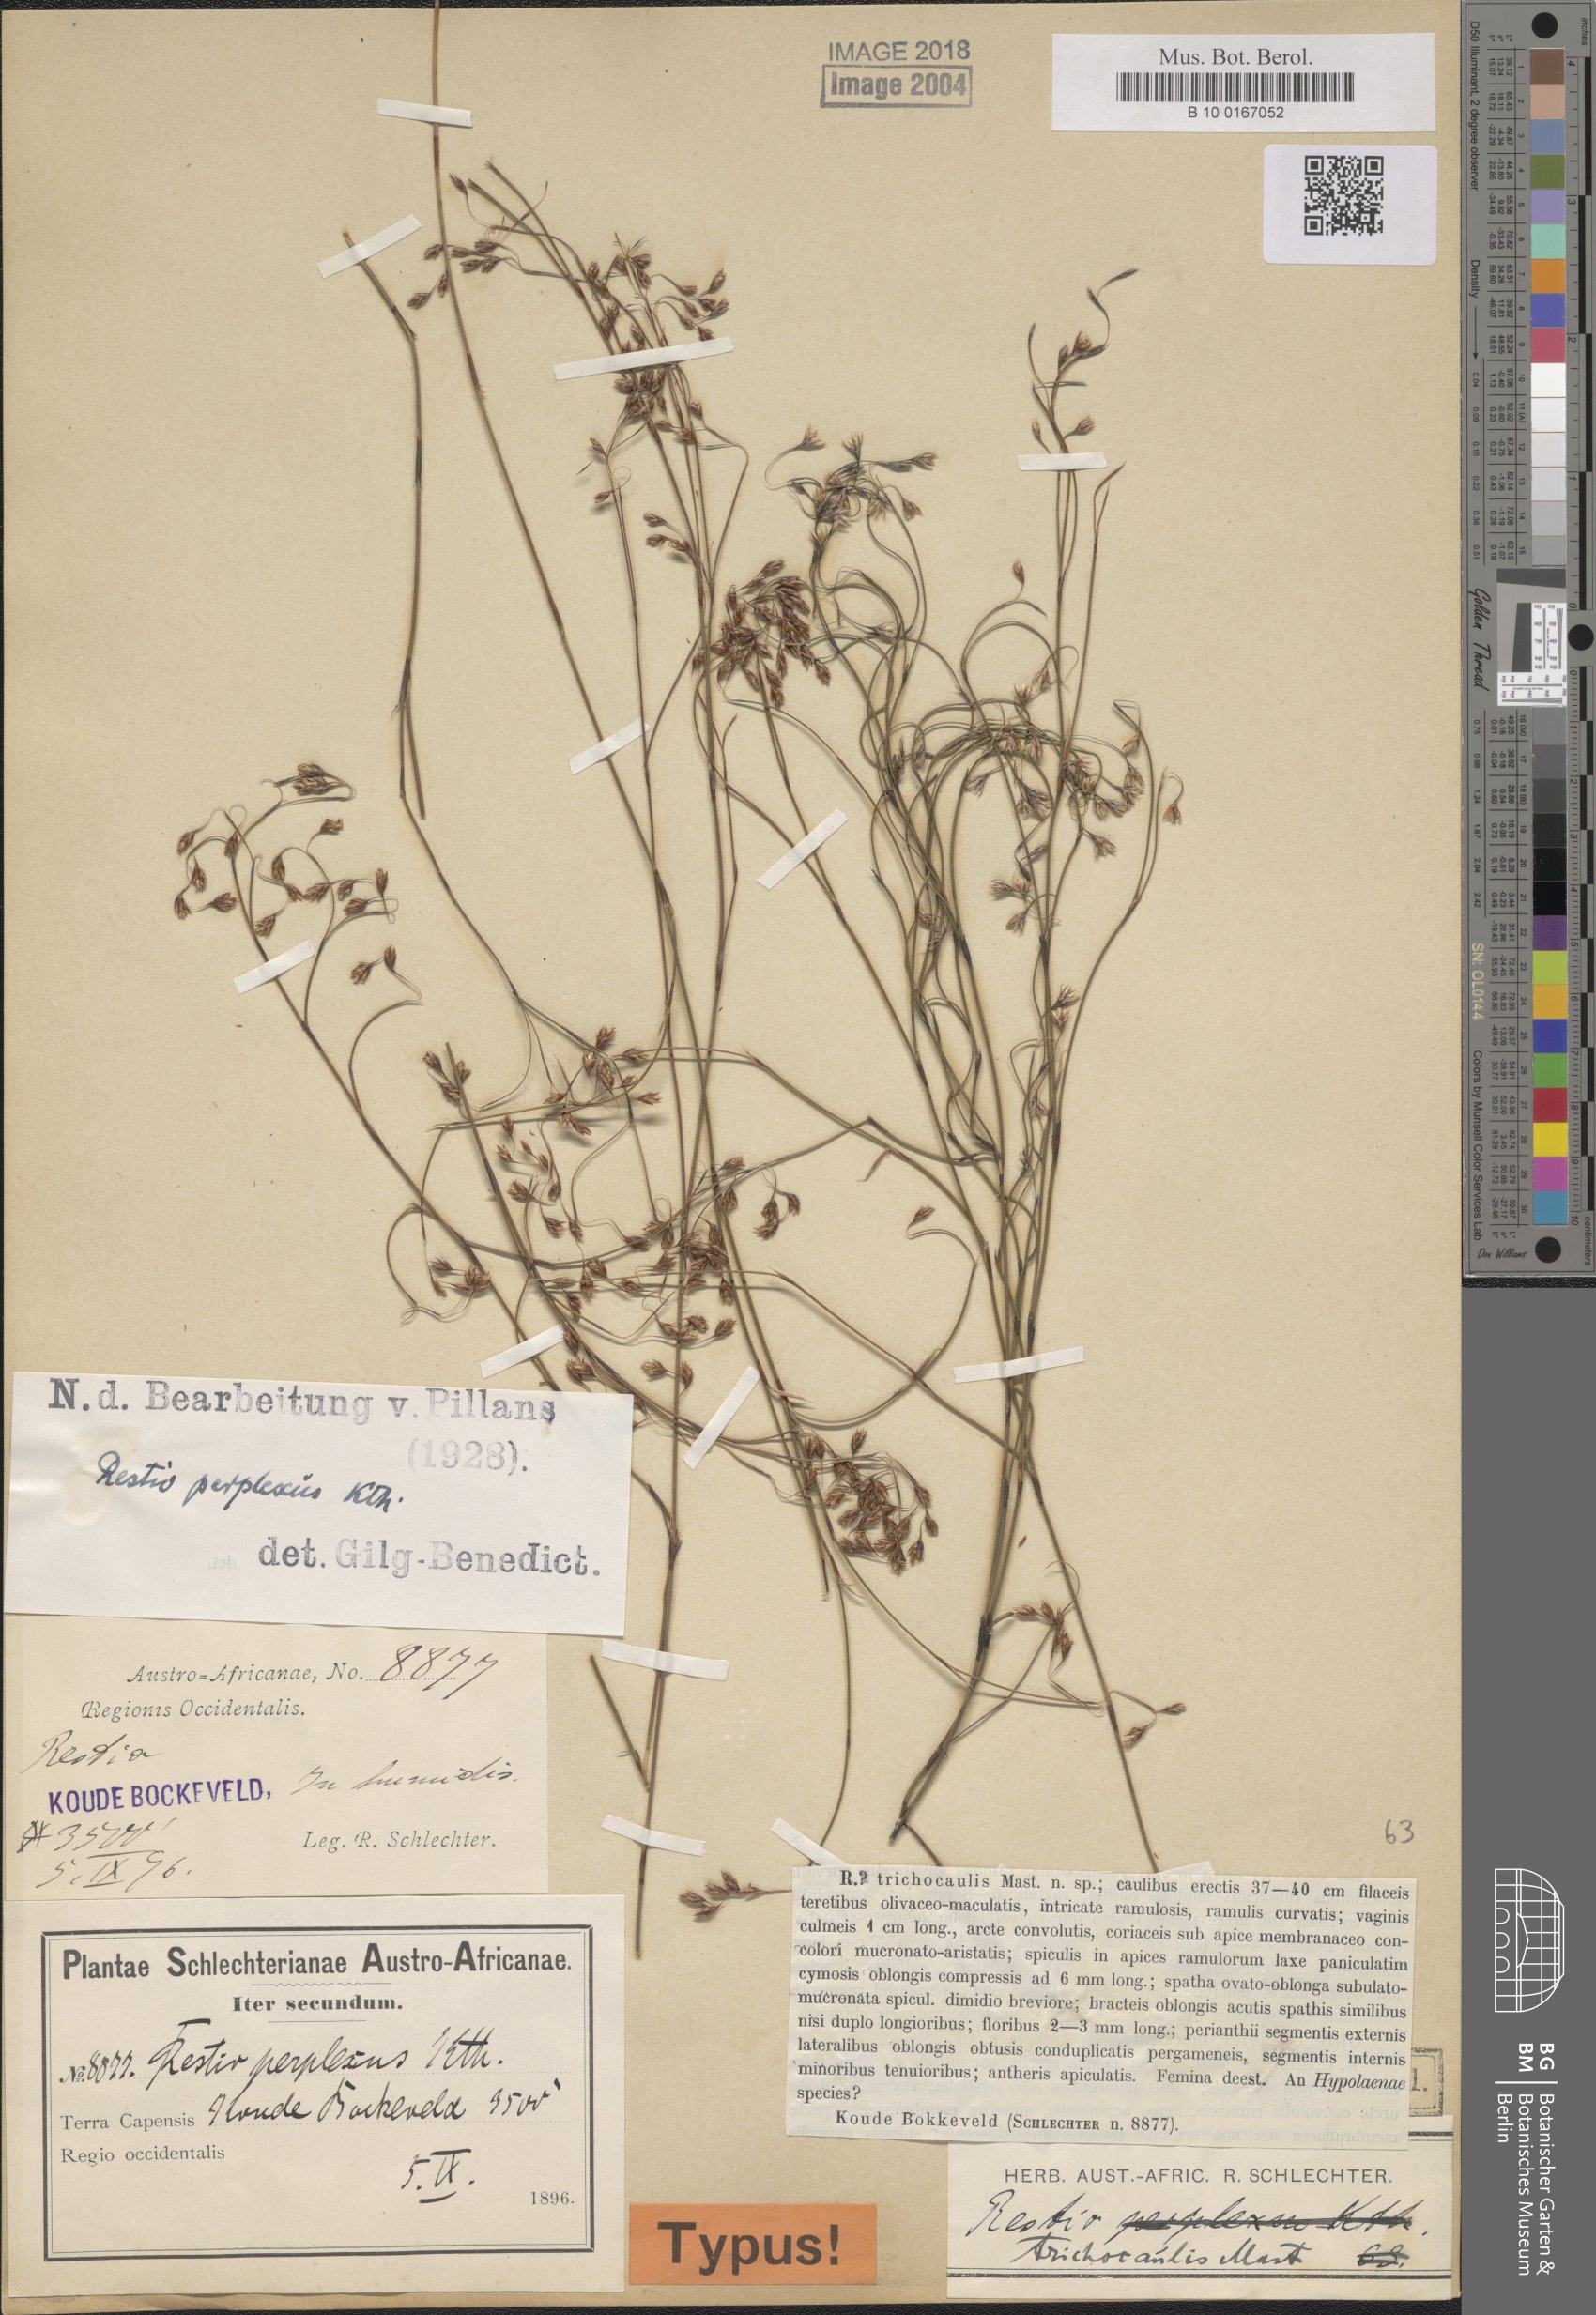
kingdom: Plantae
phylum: Tracheophyta
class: Liliopsida
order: Poales
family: Restionaceae
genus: Restio
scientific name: Restio perplexus
